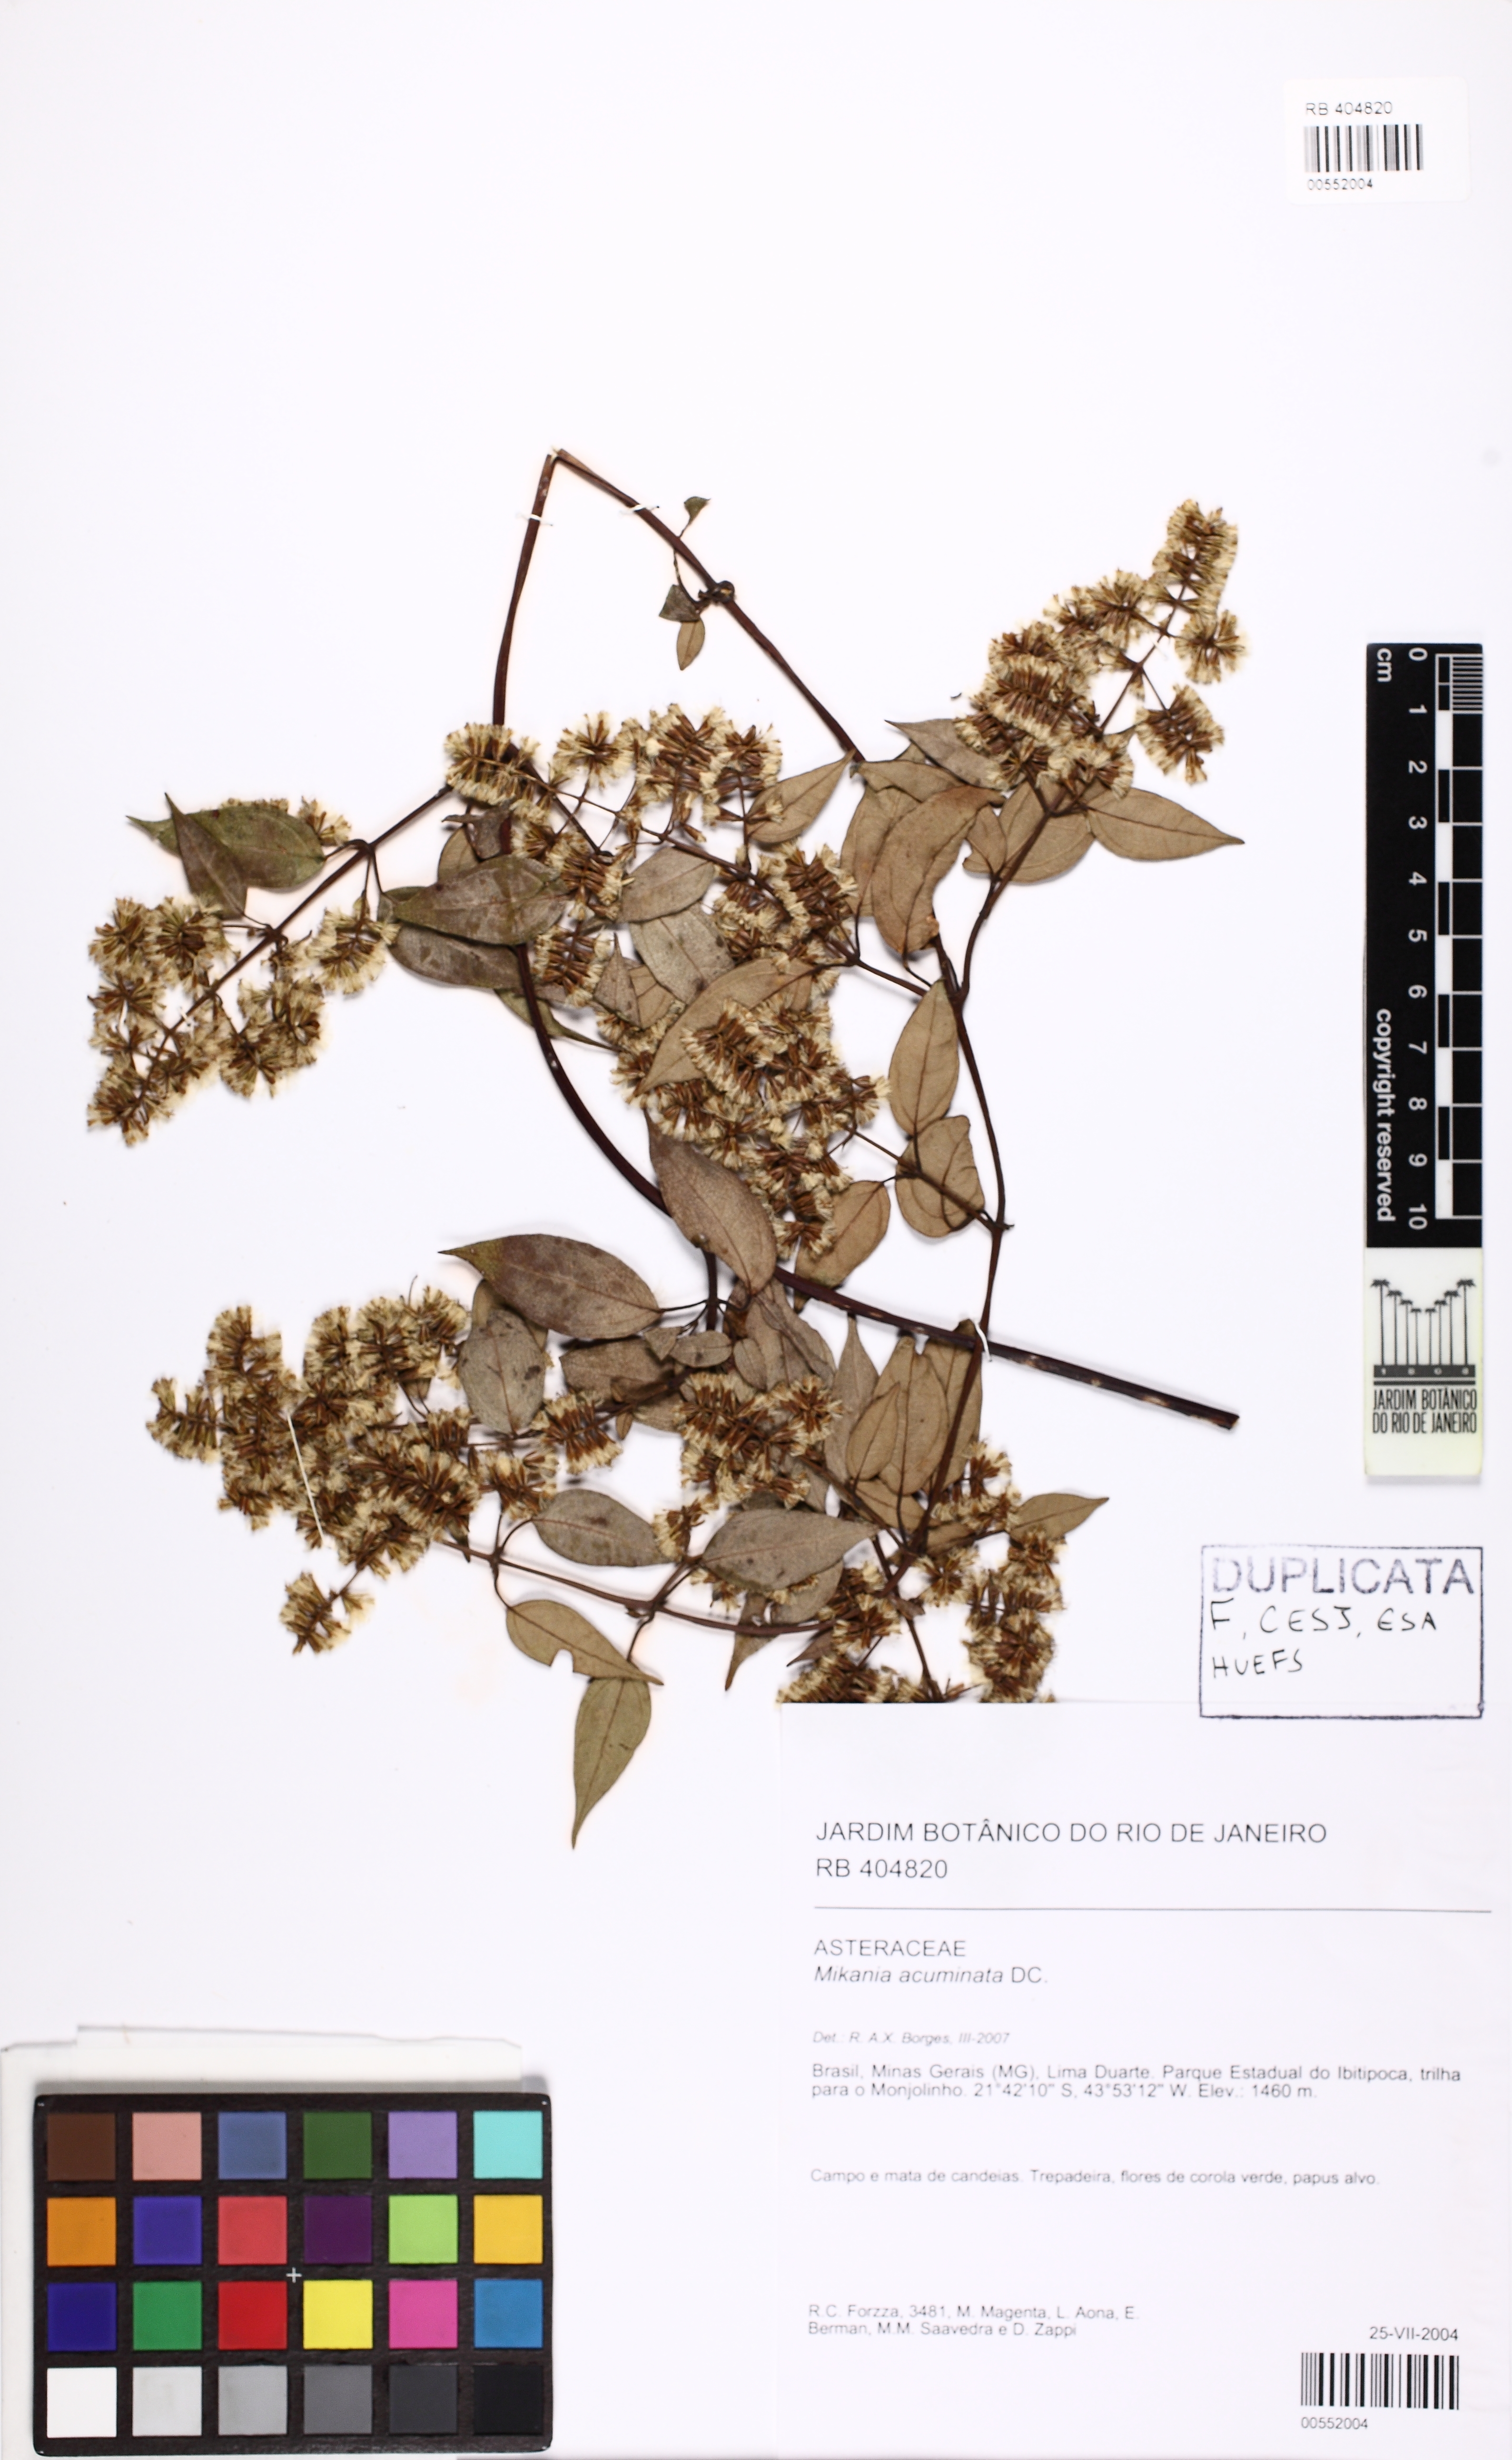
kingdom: Plantae
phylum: Tracheophyta
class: Magnoliopsida
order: Asterales
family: Asteraceae
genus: Mikania
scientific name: Mikania acuminata
